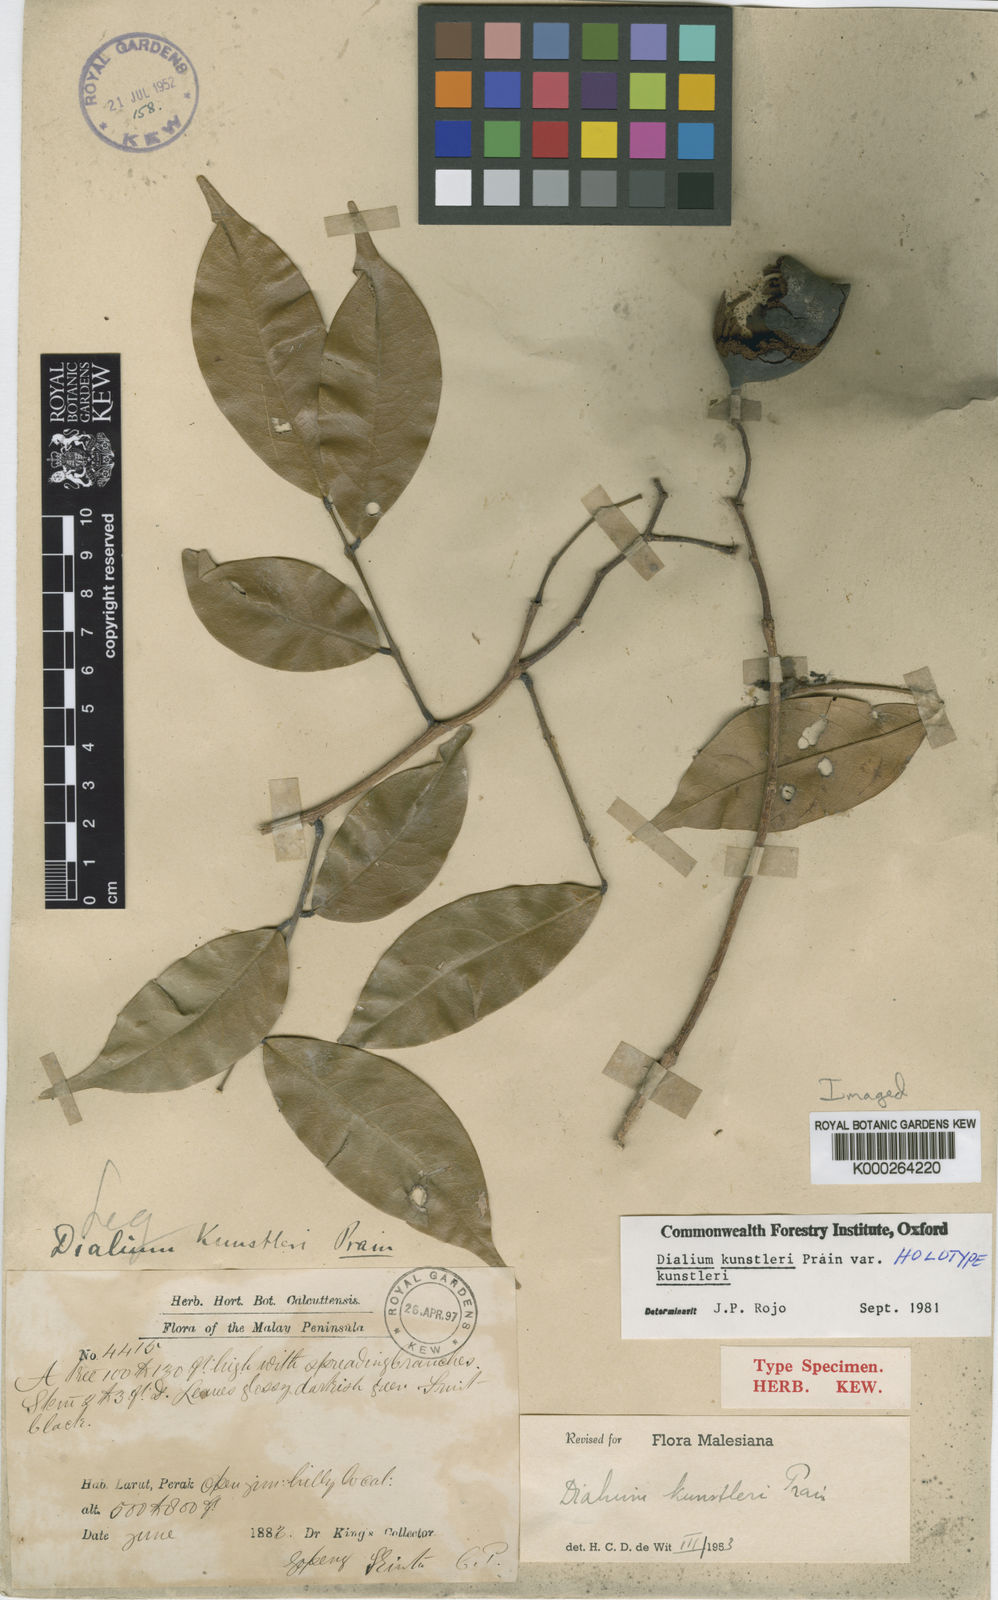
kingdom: Plantae
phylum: Tracheophyta
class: Magnoliopsida
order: Fabales
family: Fabaceae
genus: Dialium
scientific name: Dialium kunstleri
